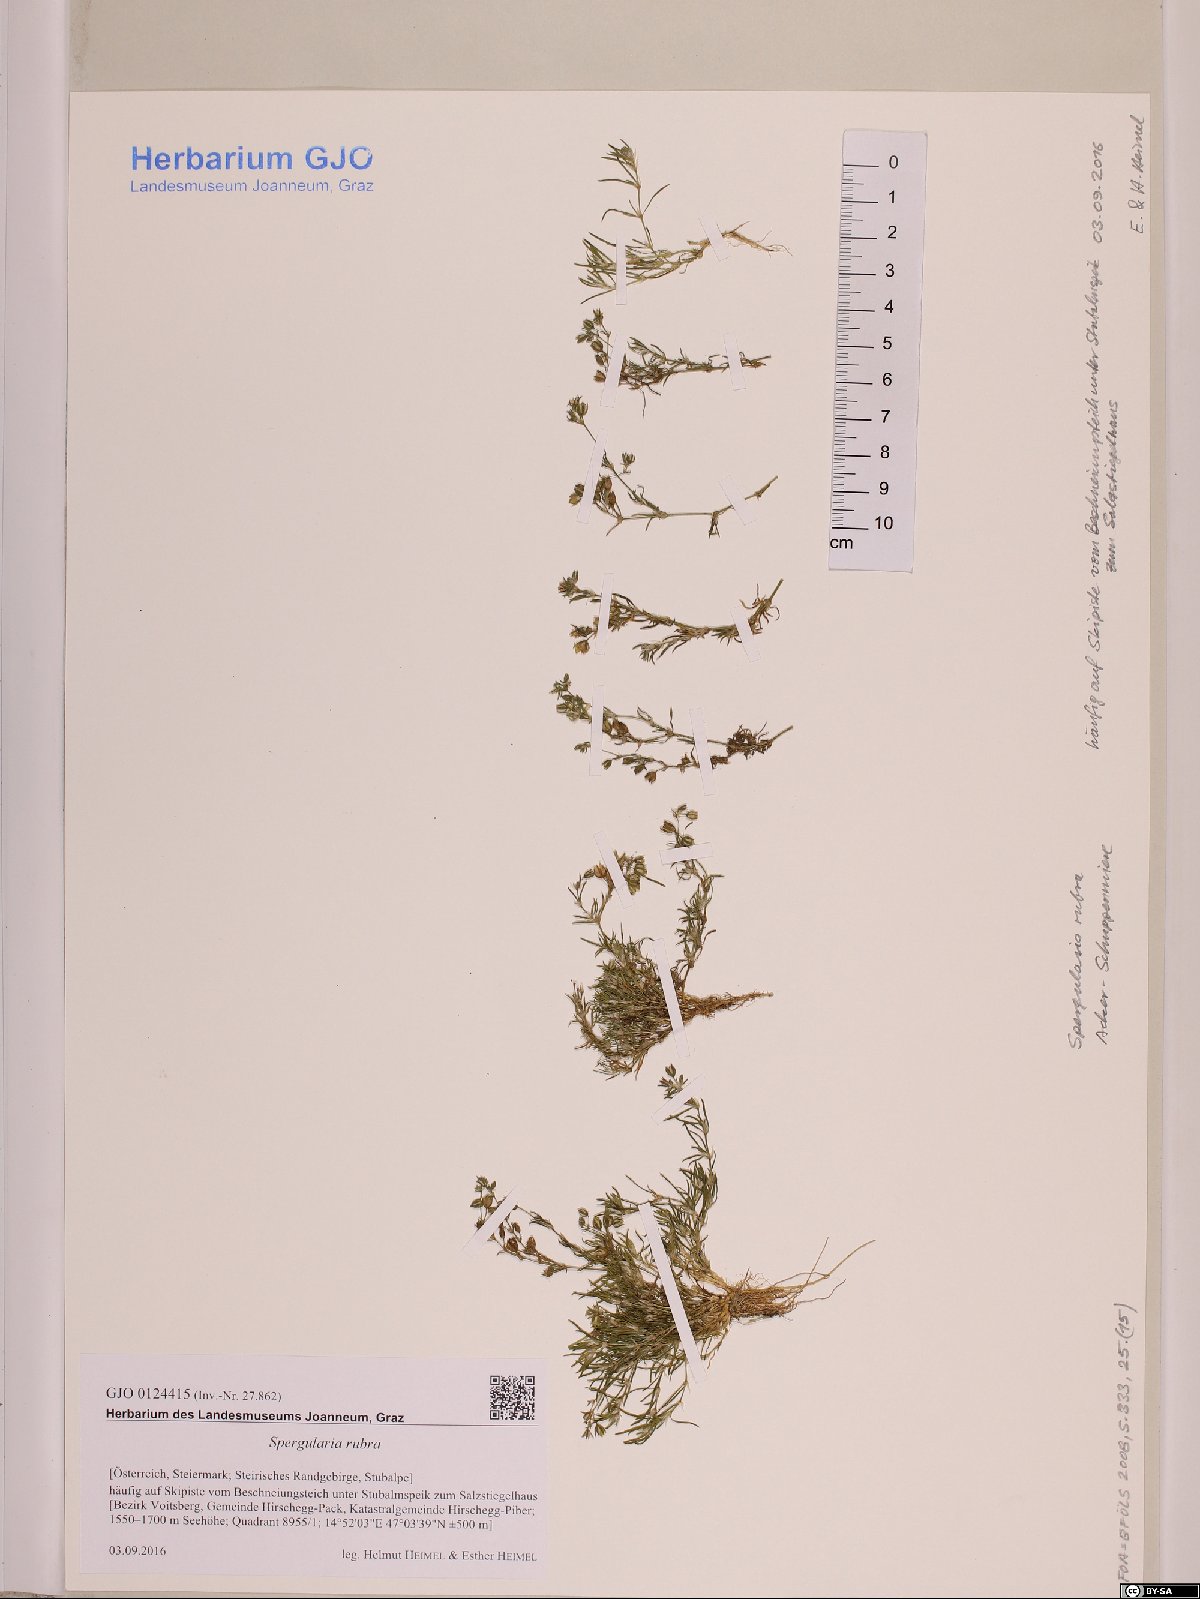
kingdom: Plantae
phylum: Tracheophyta
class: Magnoliopsida
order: Caryophyllales
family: Caryophyllaceae
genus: Spergularia
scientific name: Spergularia rubra
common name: Red sand-spurrey
